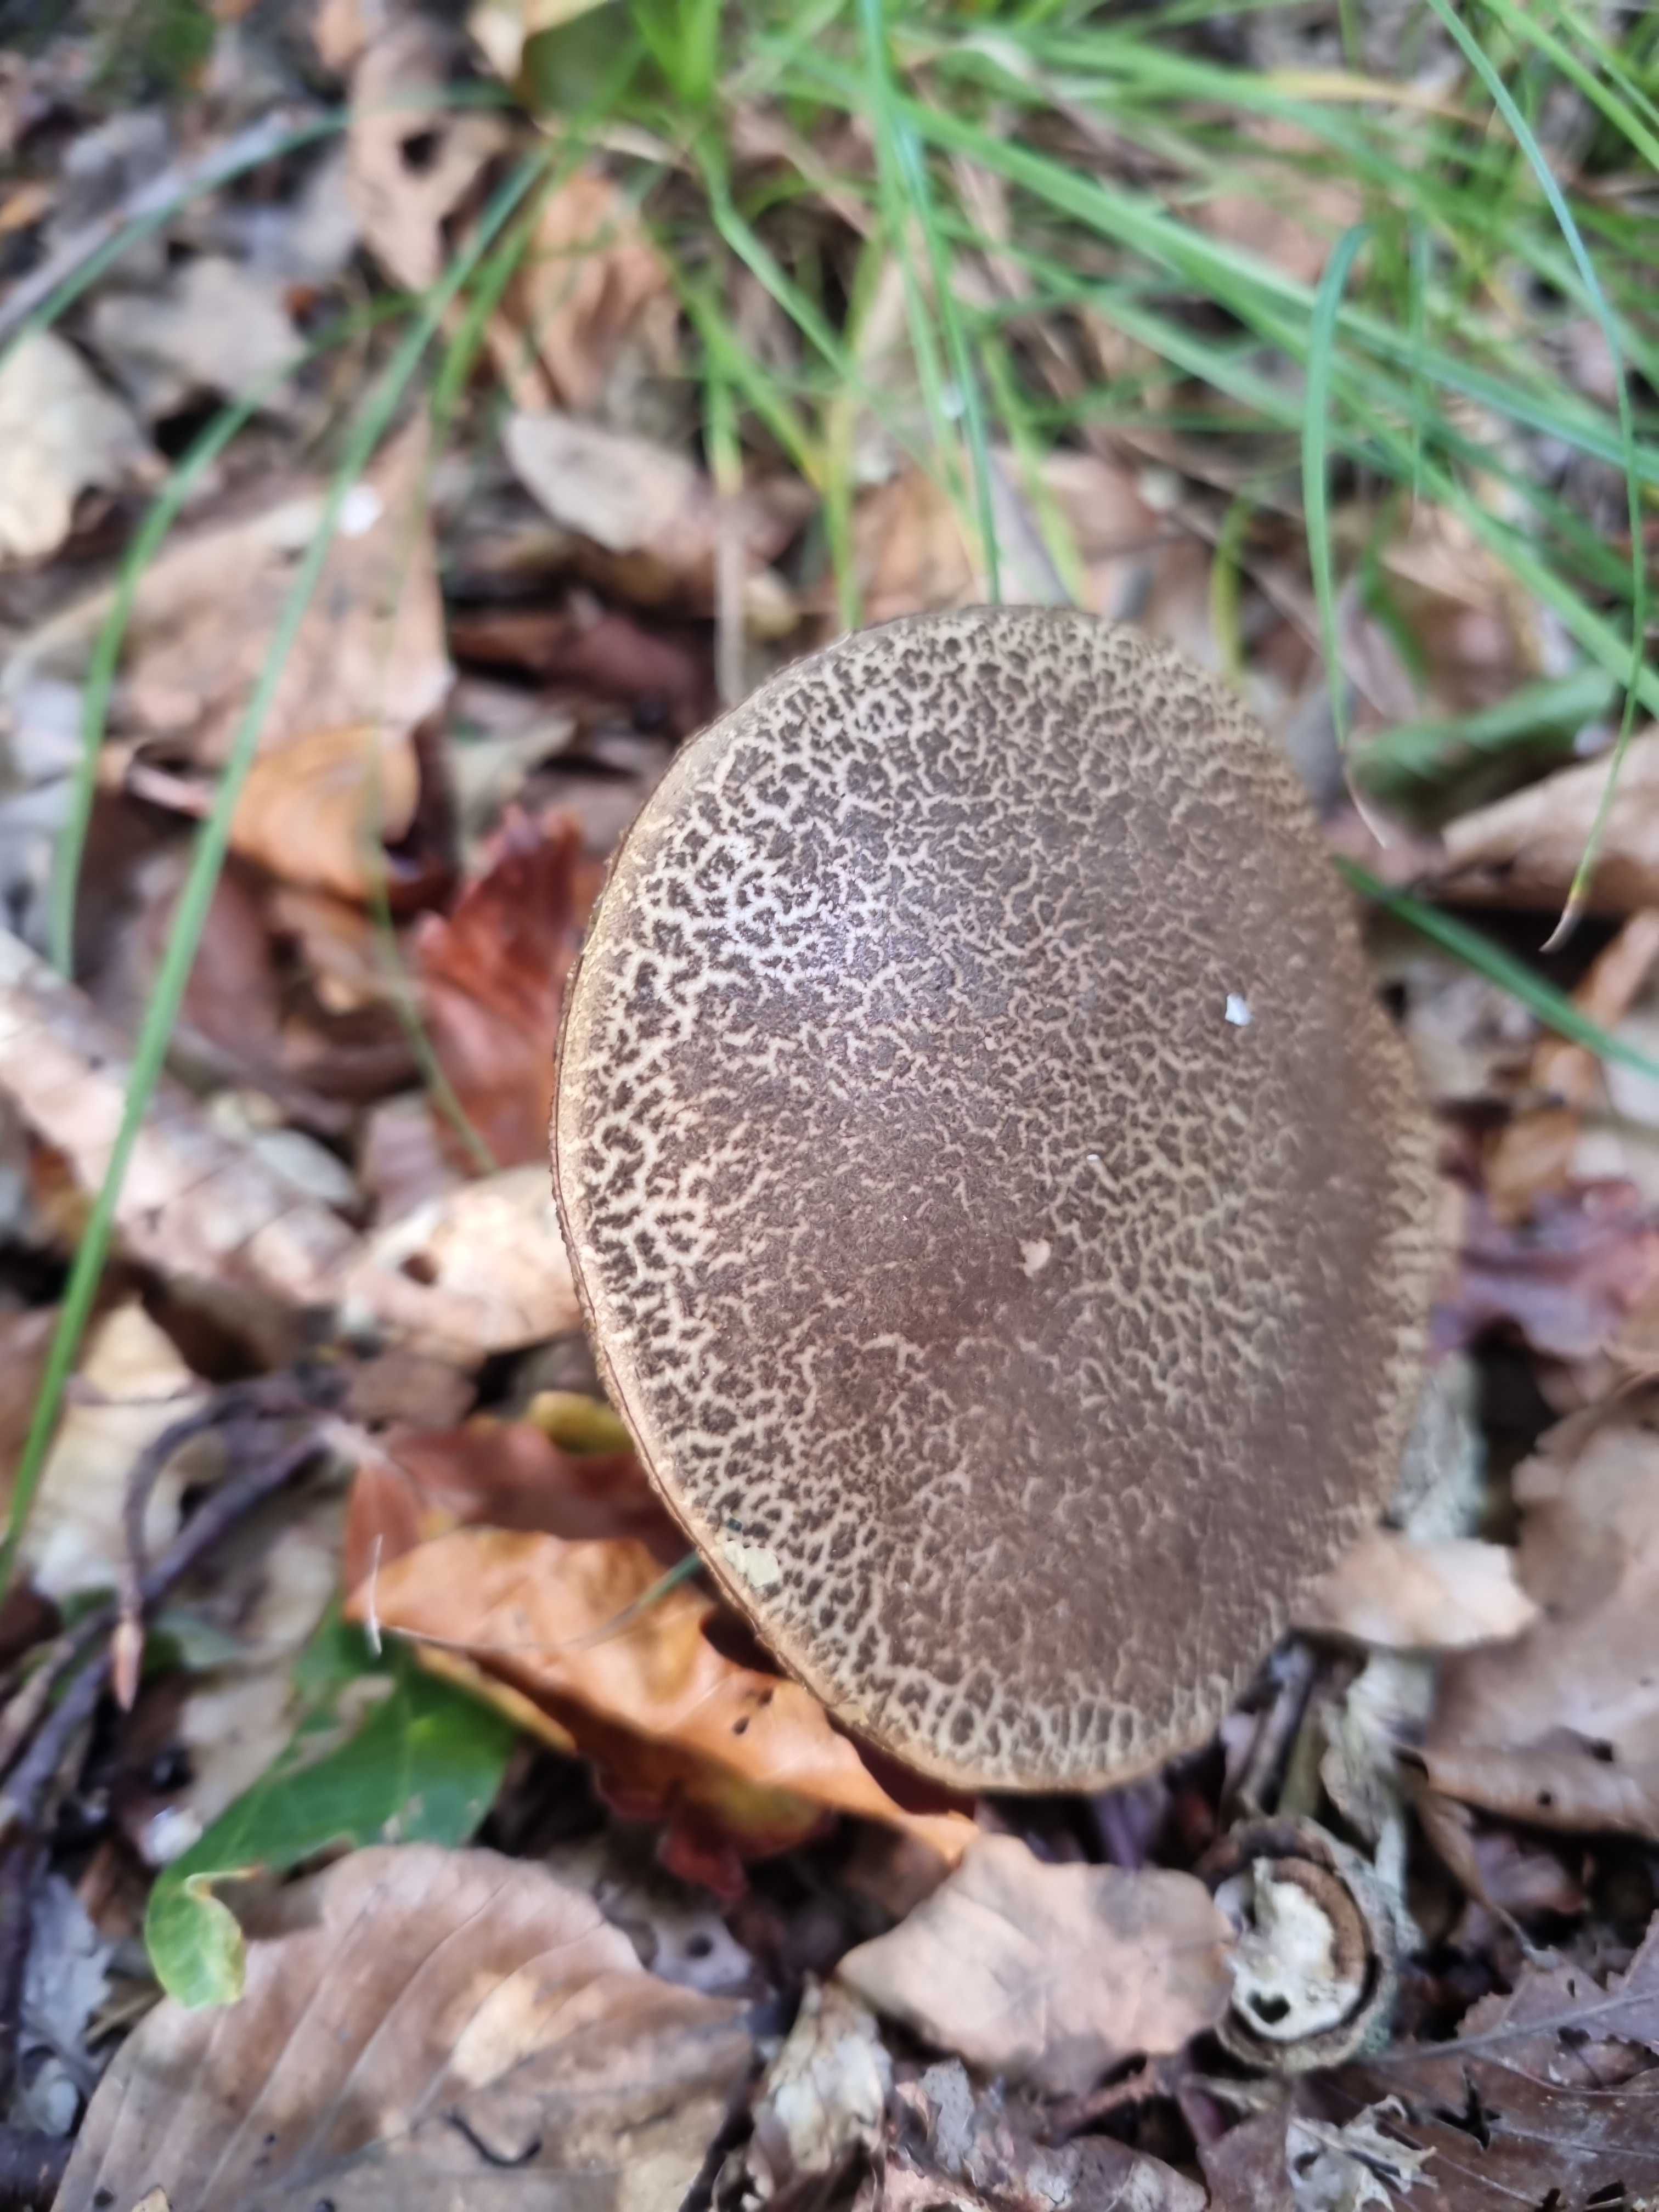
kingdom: Fungi
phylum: Basidiomycota
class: Agaricomycetes
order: Boletales
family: Boletaceae
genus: Xerocomellus
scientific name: Xerocomellus cisalpinus
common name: finsprukken rørhat
